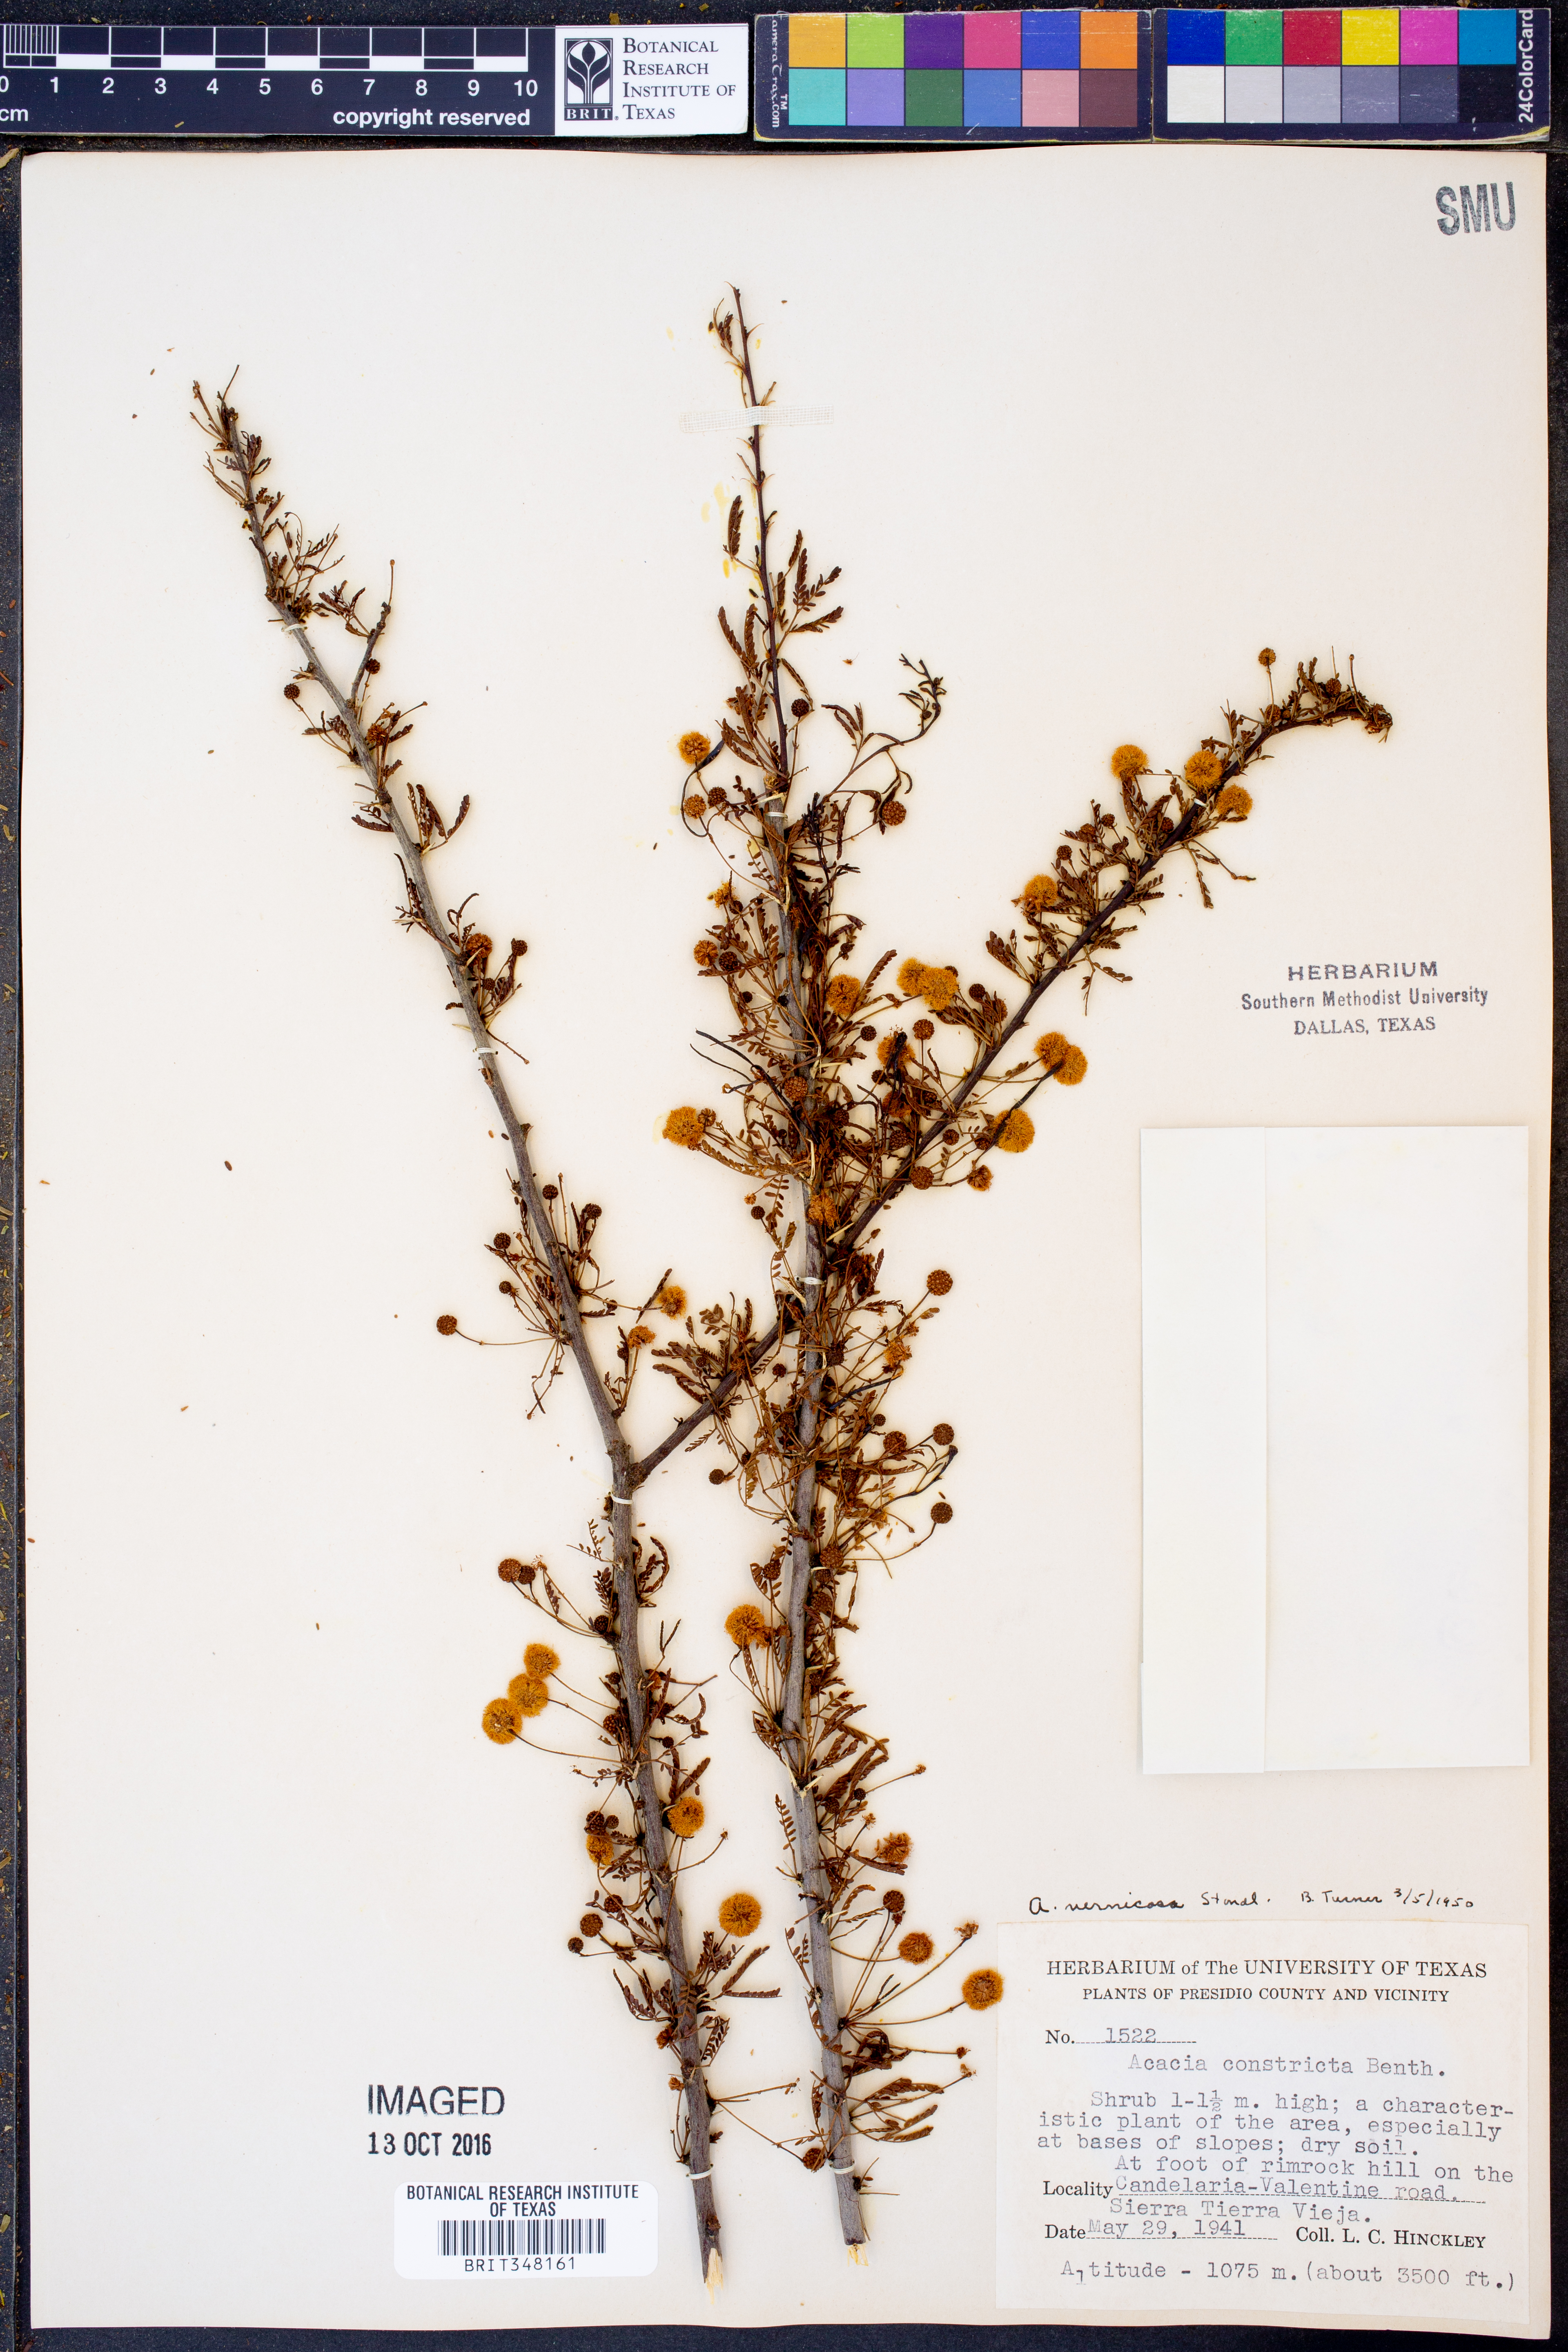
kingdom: Plantae
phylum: Tracheophyta
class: Magnoliopsida
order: Fabales
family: Fabaceae
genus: Vachellia
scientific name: Vachellia vernicosa
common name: Viscid acacia
